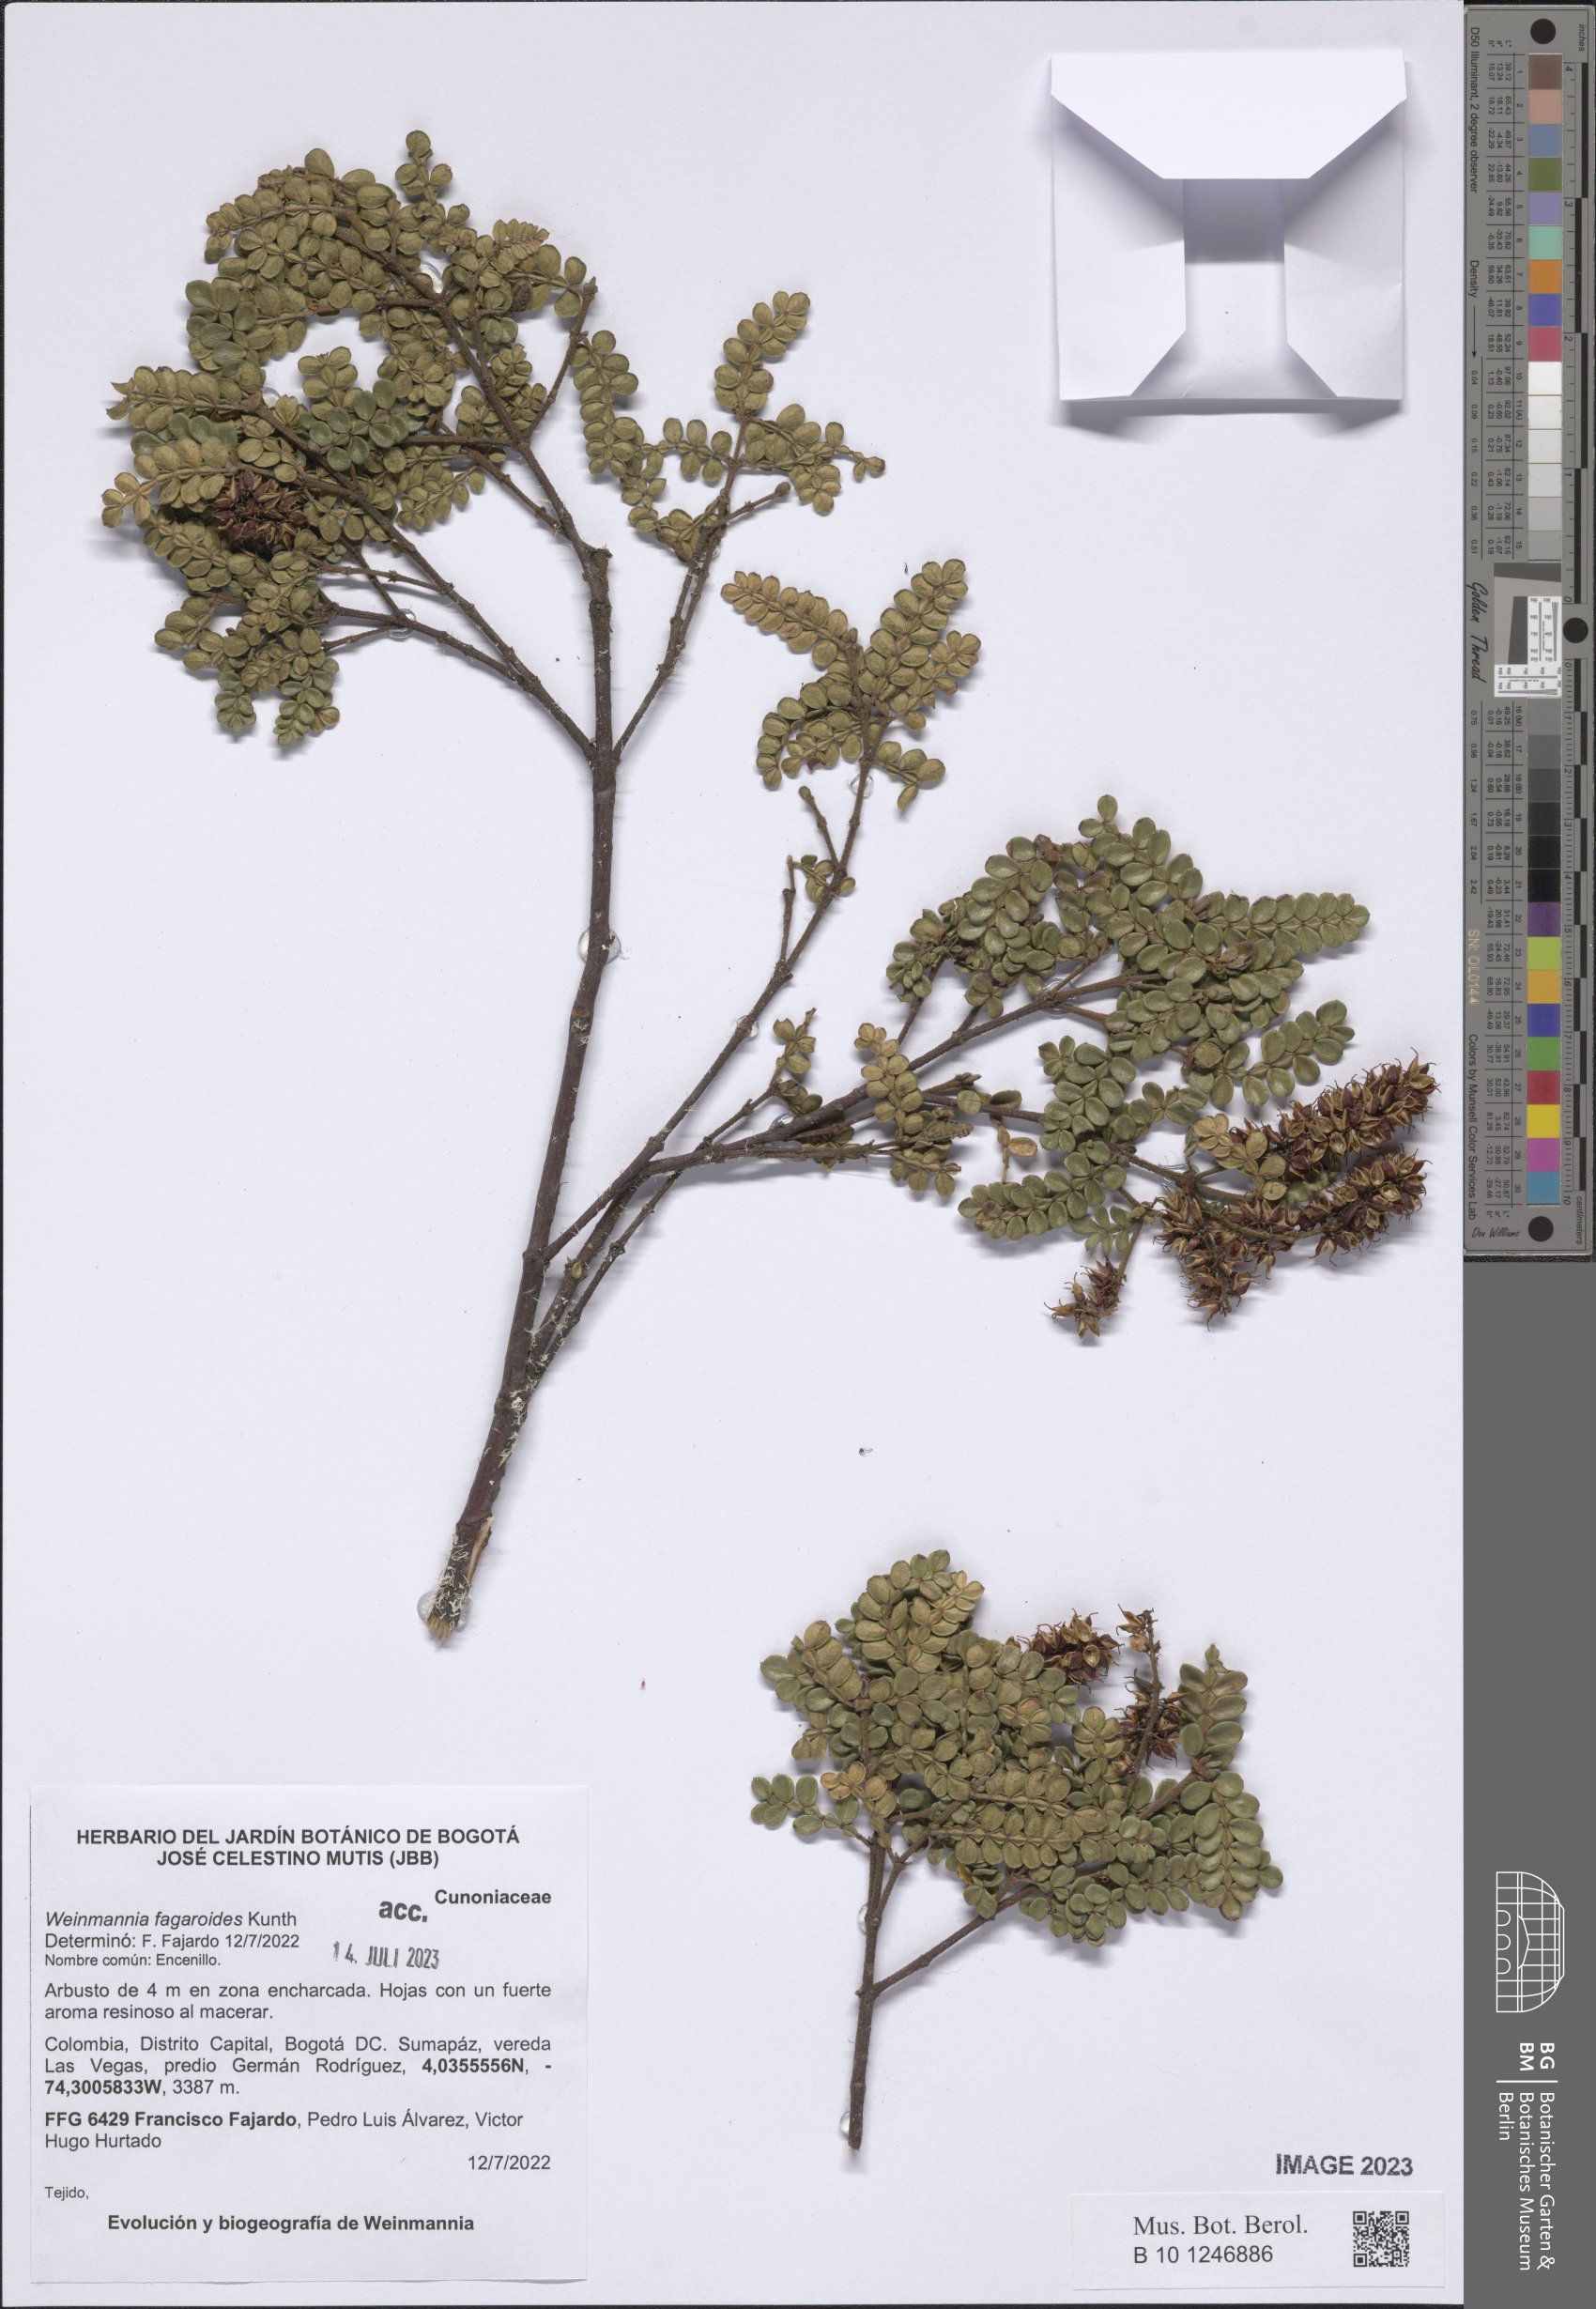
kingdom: Plantae
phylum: Tracheophyta
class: Magnoliopsida
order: Oxalidales
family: Cunoniaceae
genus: Weinmannia
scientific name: Weinmannia fagaroides
